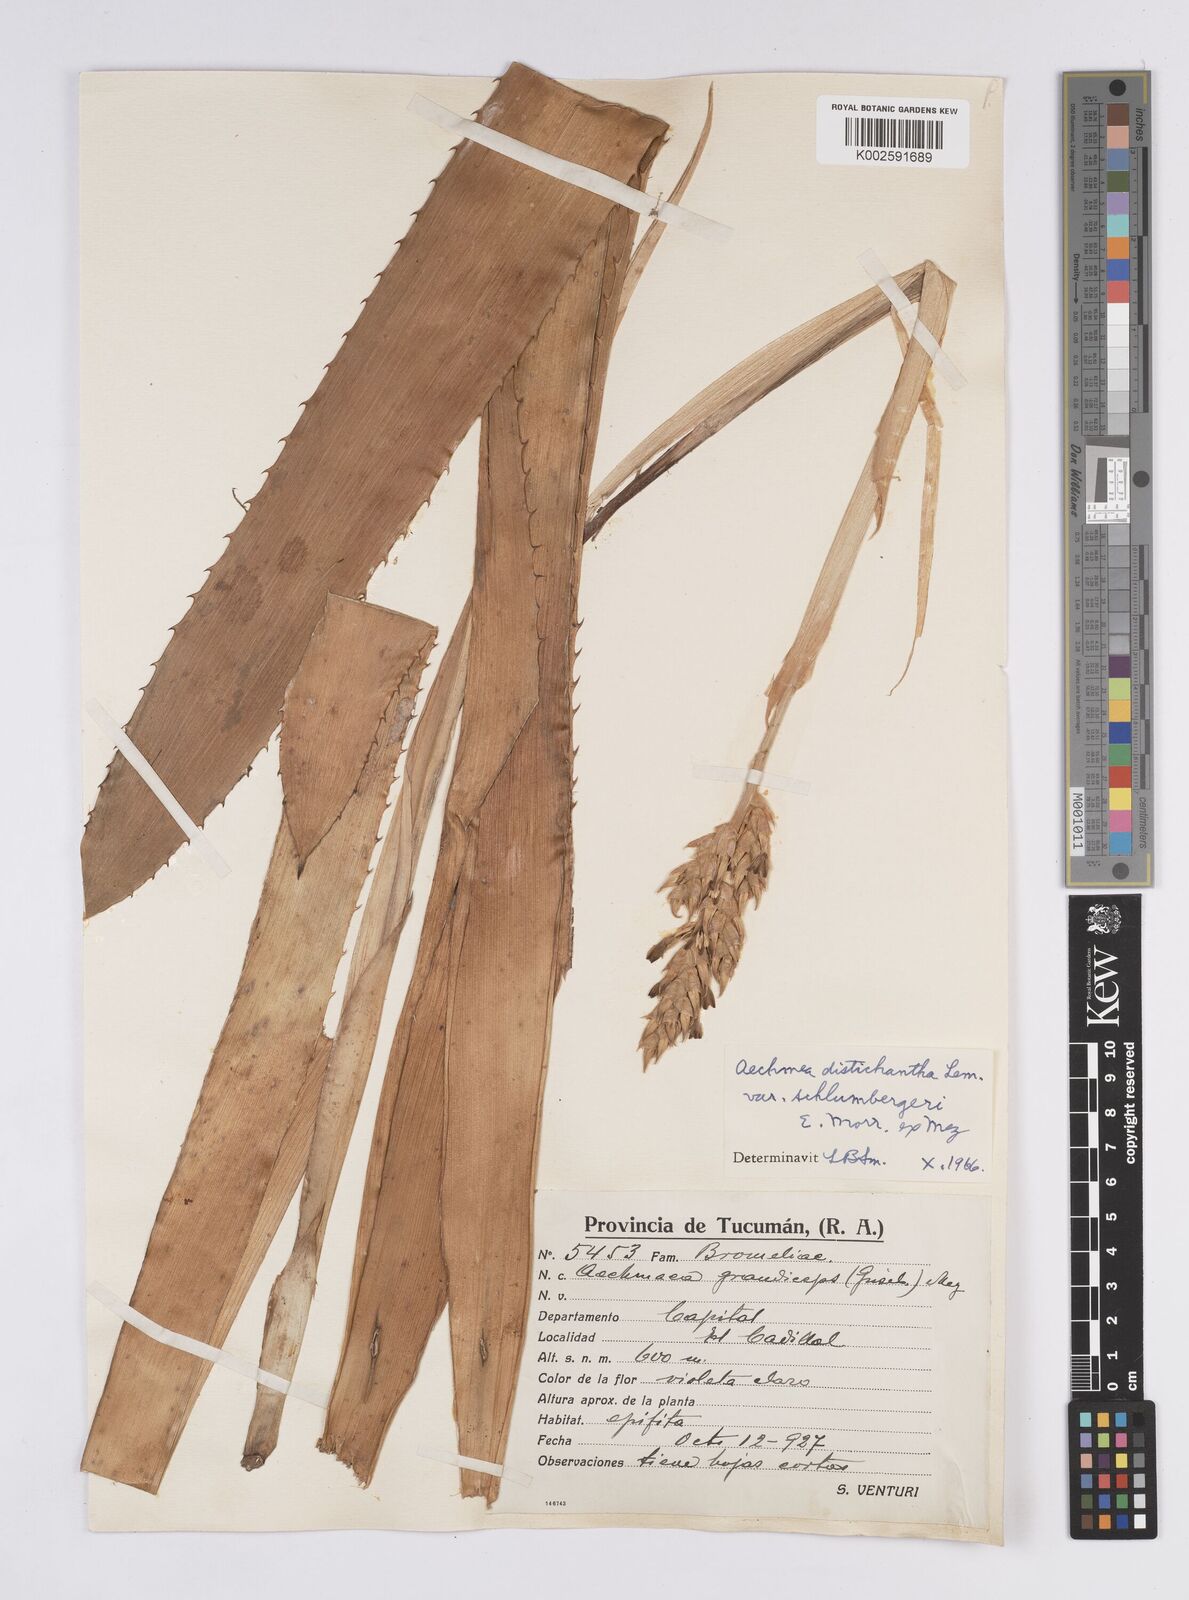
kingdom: Plantae
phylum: Tracheophyta
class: Liliopsida
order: Poales
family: Bromeliaceae
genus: Aechmea
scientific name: Aechmea distichantha
